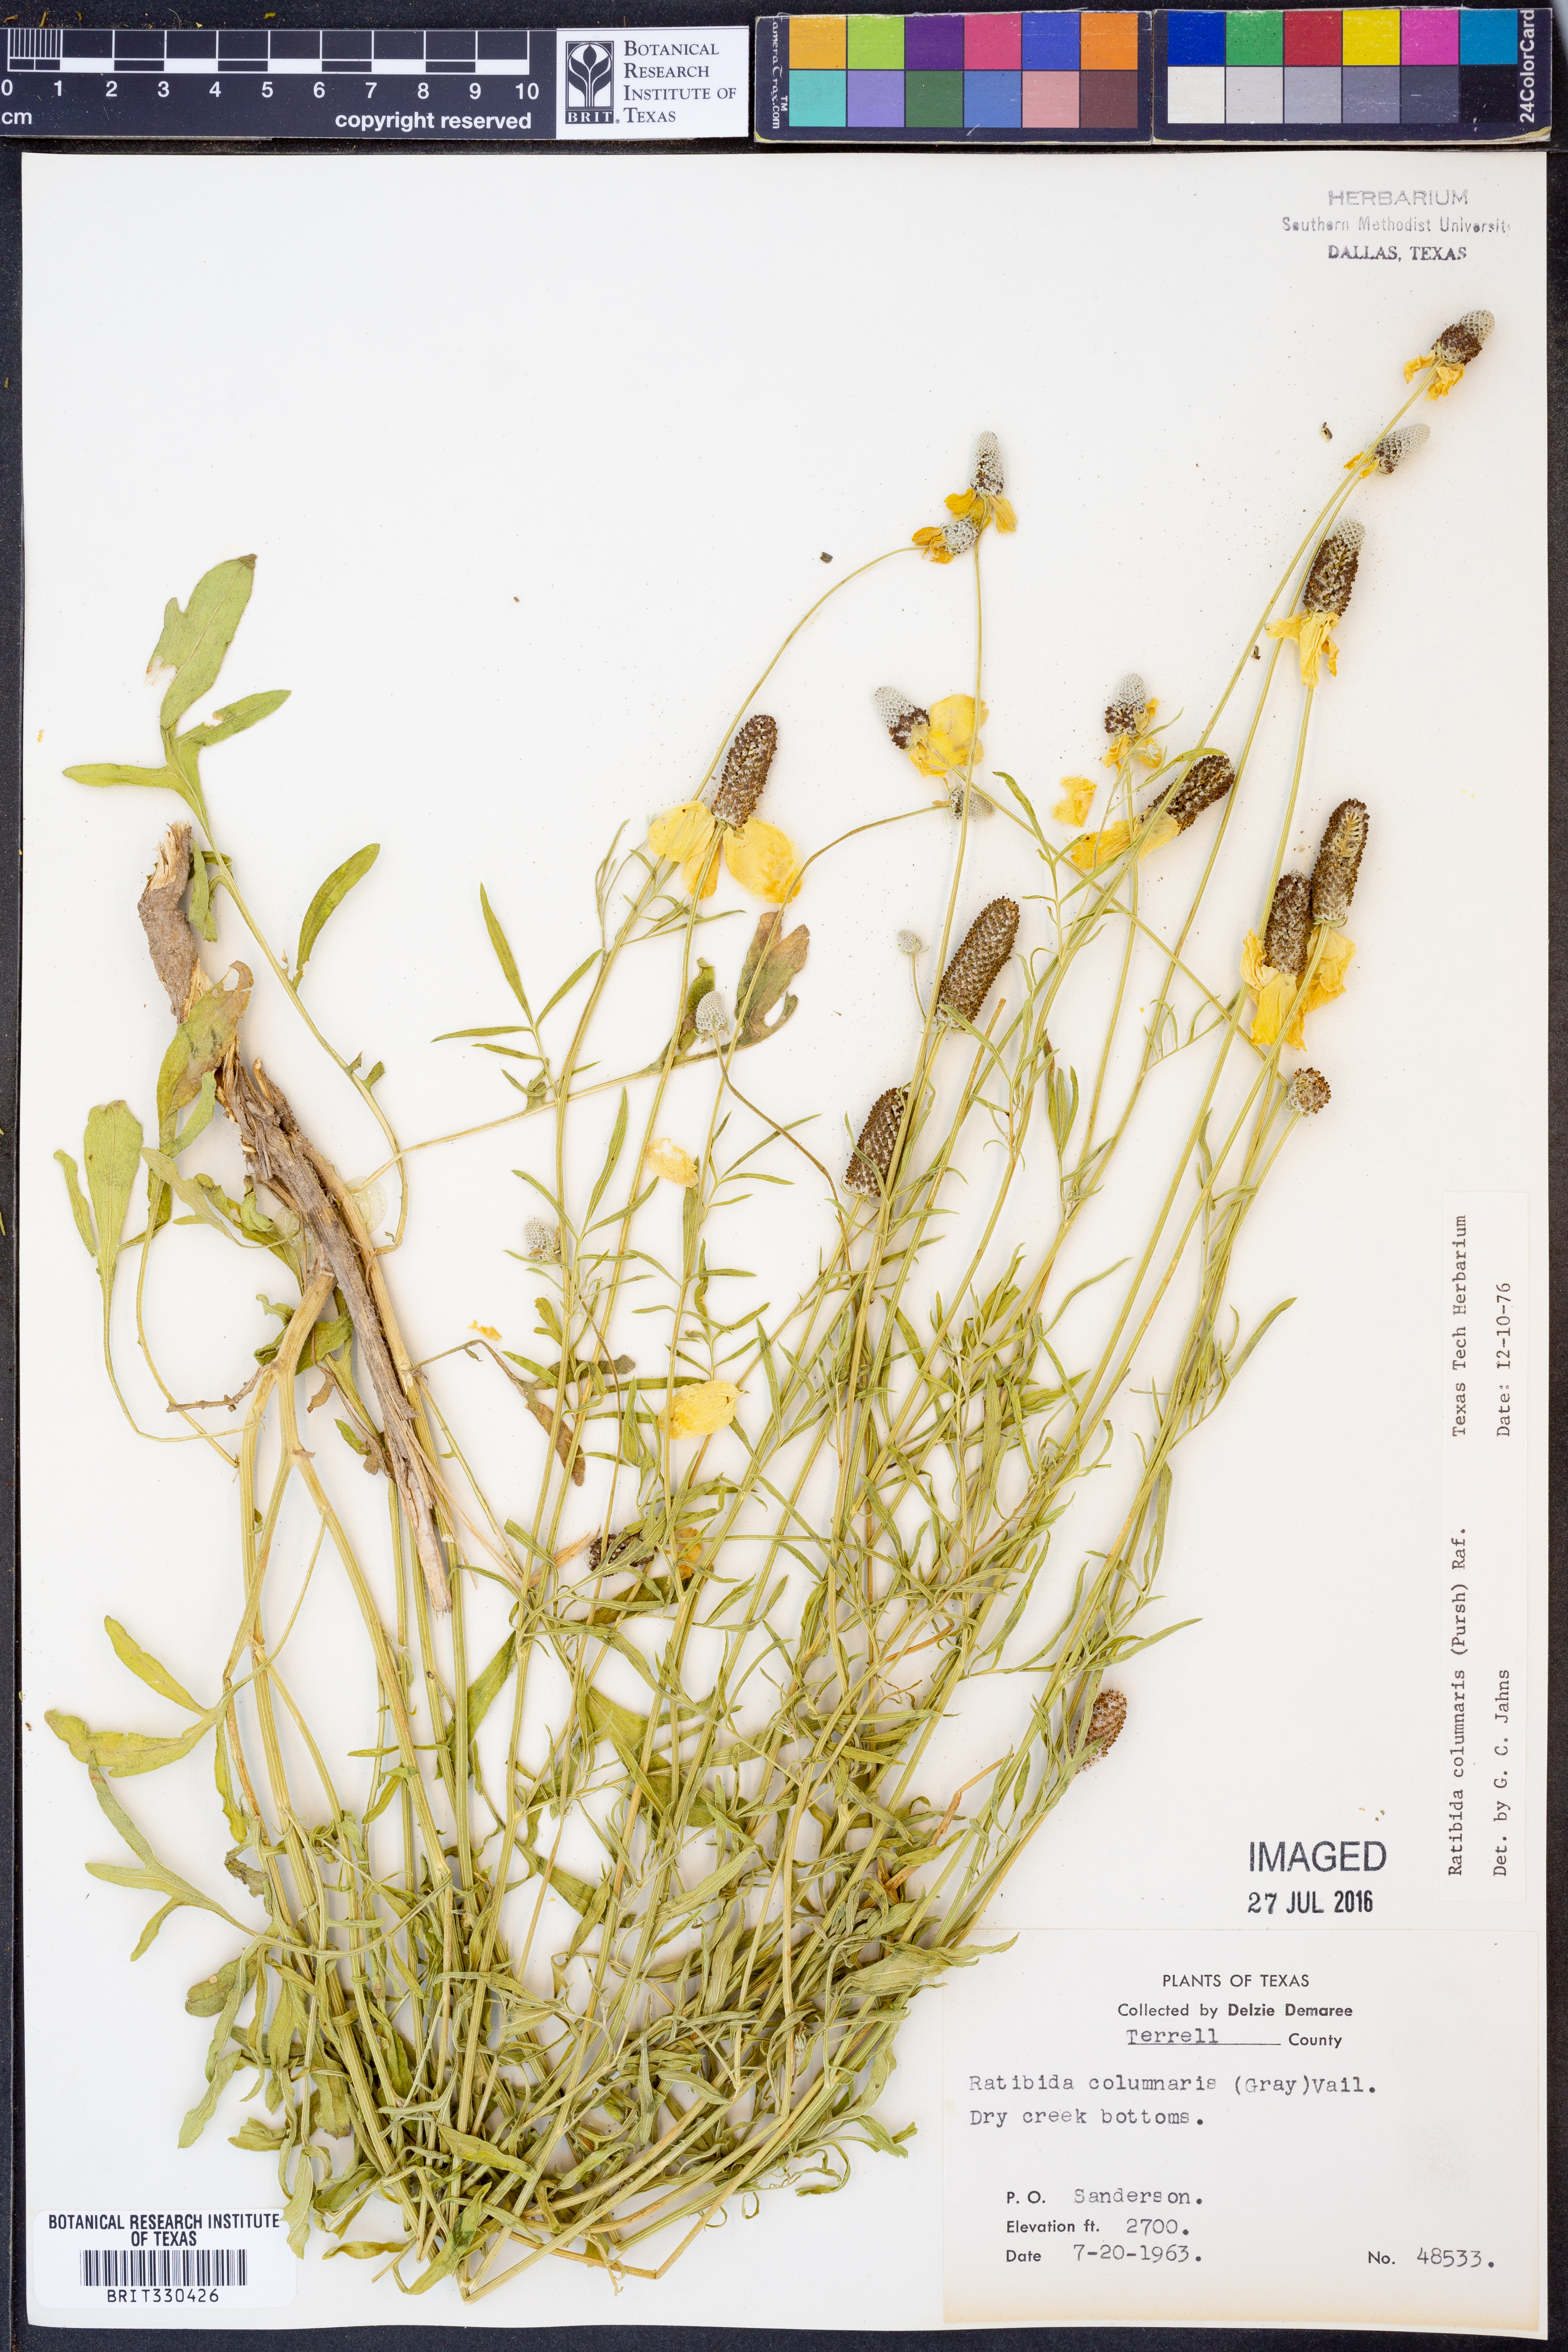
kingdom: Plantae
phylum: Tracheophyta
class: Magnoliopsida
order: Asterales
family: Asteraceae
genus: Ratibida
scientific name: Ratibida columnifera
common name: Prairie coneflower
